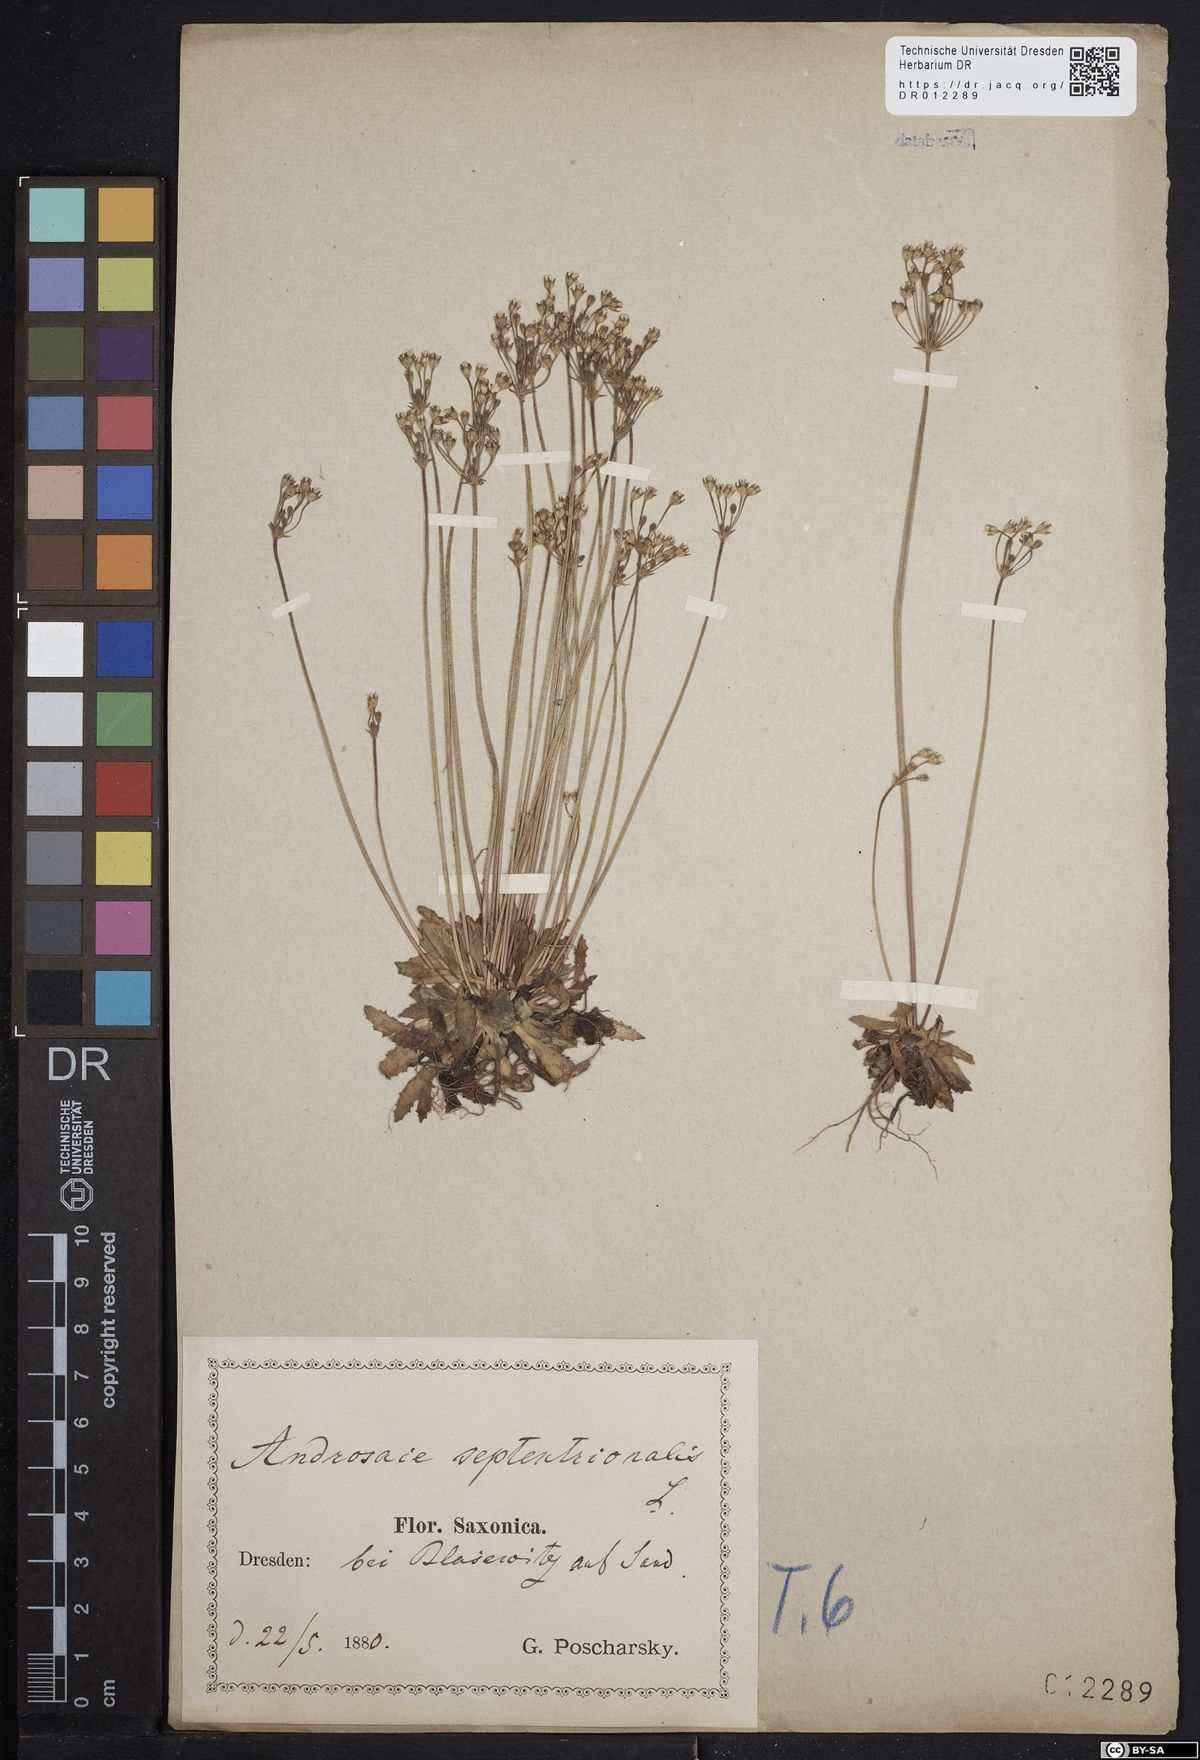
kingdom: Plantae
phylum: Tracheophyta
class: Magnoliopsida
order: Ericales
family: Primulaceae
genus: Androsace
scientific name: Androsace septentrionalis
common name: Hairy northern fairy-candelabra
